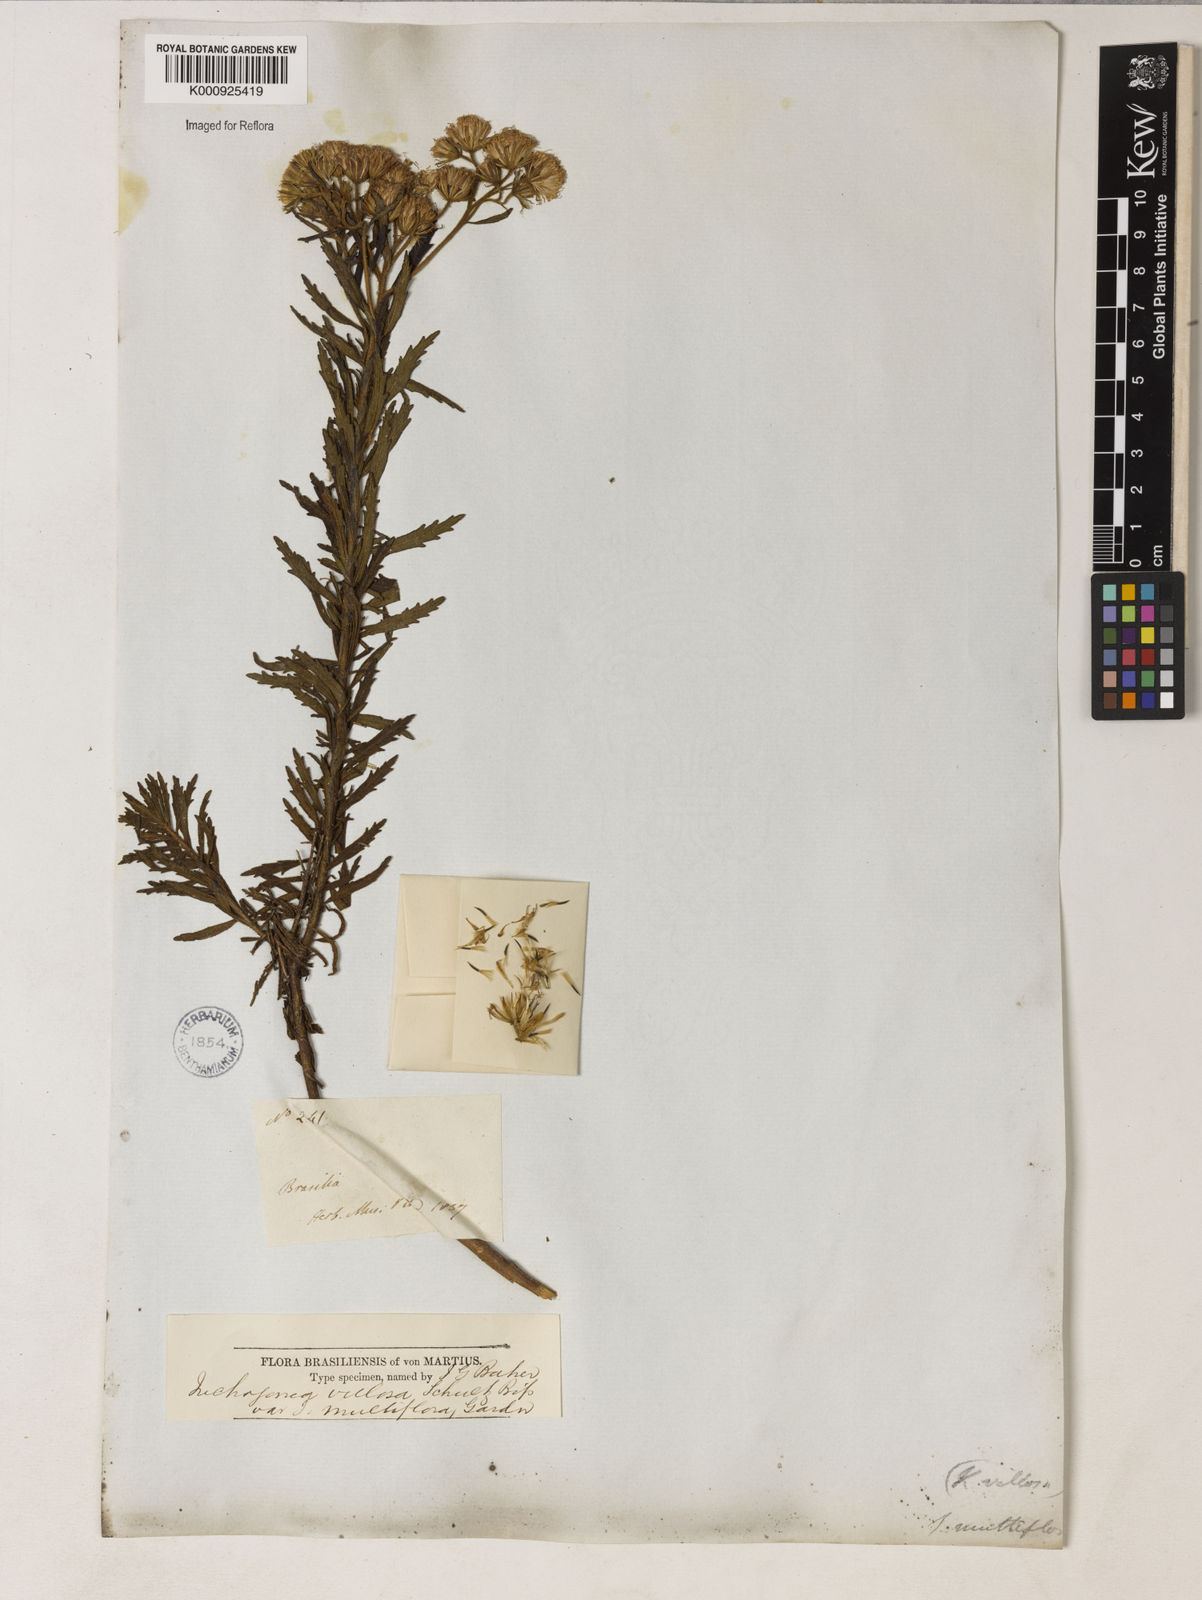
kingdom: Plantae
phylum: Tracheophyta
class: Magnoliopsida
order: Asterales
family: Asteraceae
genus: Trichogonia
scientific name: Trichogonia villosa
